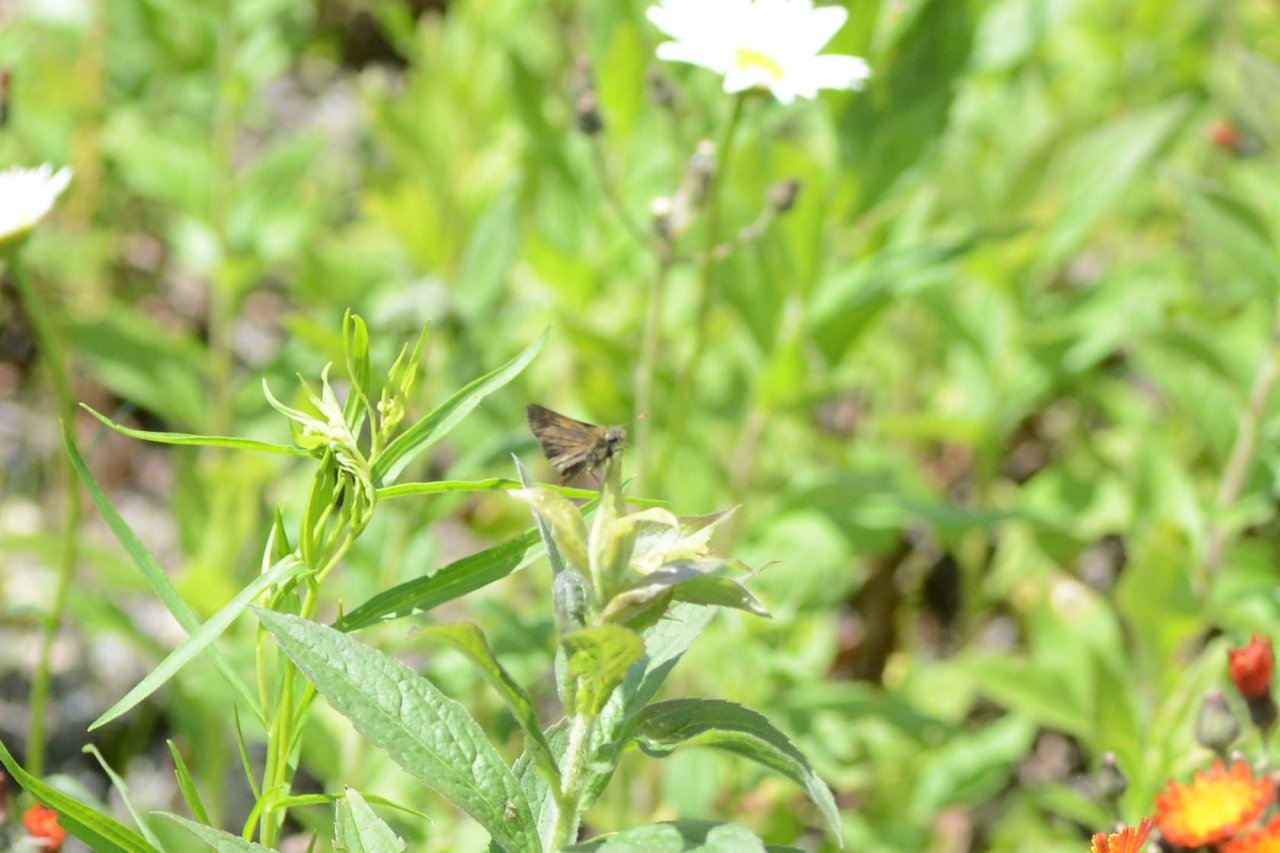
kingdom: Animalia
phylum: Arthropoda
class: Insecta
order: Lepidoptera
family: Hesperiidae
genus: Polites
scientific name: Polites themistocles
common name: Tawny-edged Skipper
